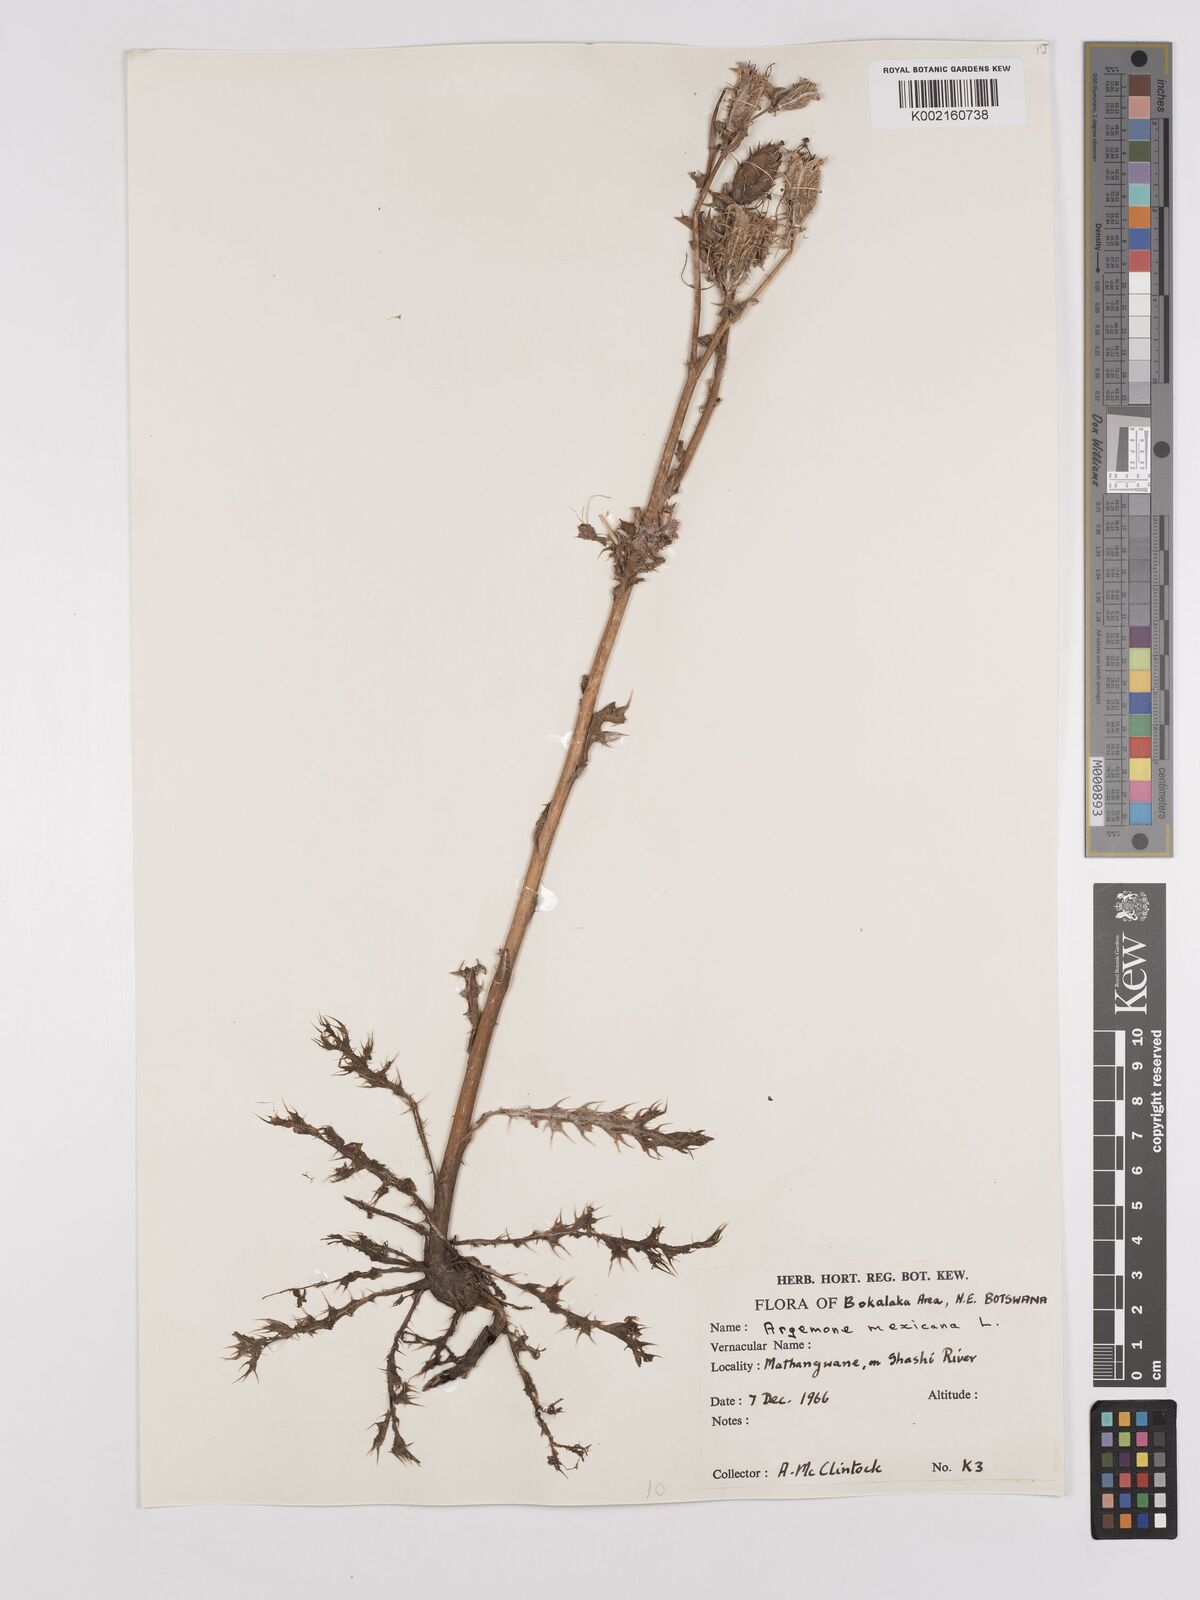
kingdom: Plantae
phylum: Tracheophyta
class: Magnoliopsida
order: Ranunculales
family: Papaveraceae
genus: Argemone
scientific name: Argemone mexicana
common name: Mexican poppy
